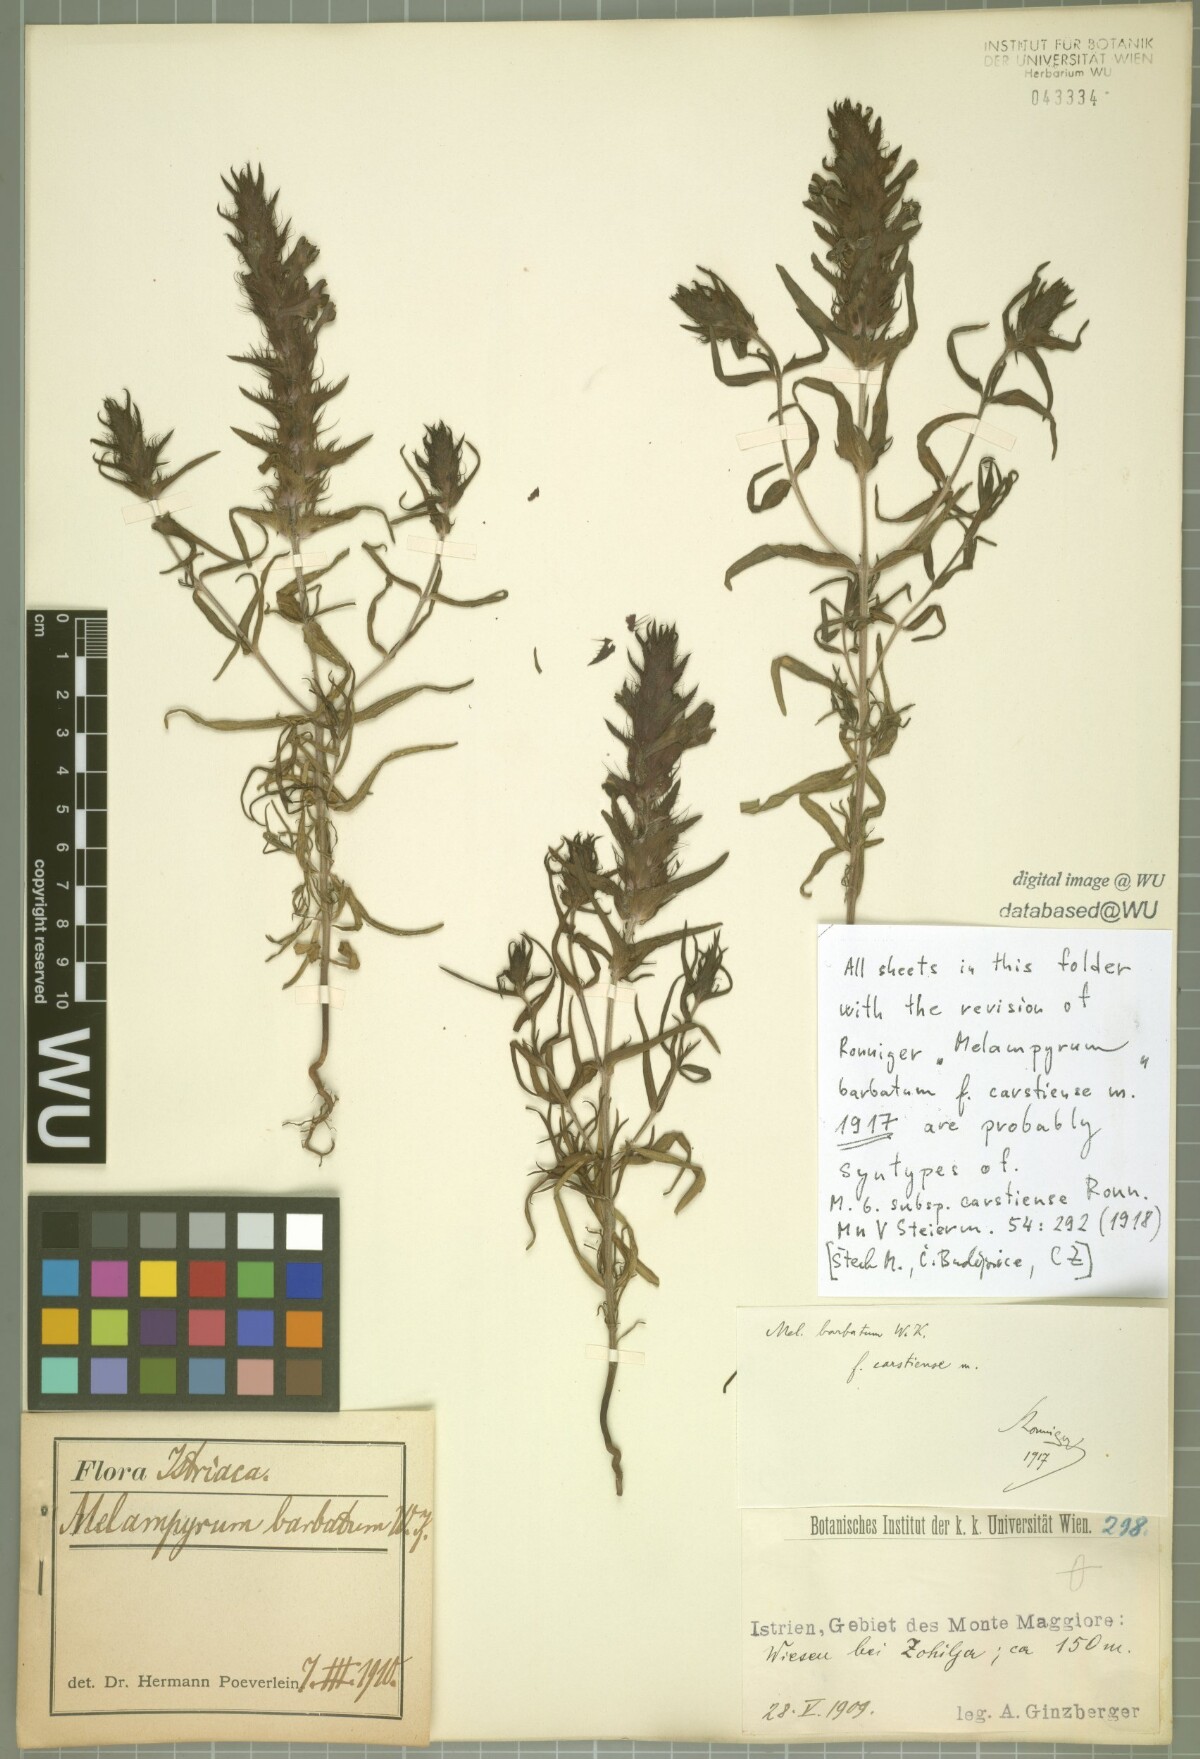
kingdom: Plantae
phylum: Tracheophyta
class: Magnoliopsida
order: Lamiales
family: Orobanchaceae
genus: Melampyrum
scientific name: Melampyrum barbatum
